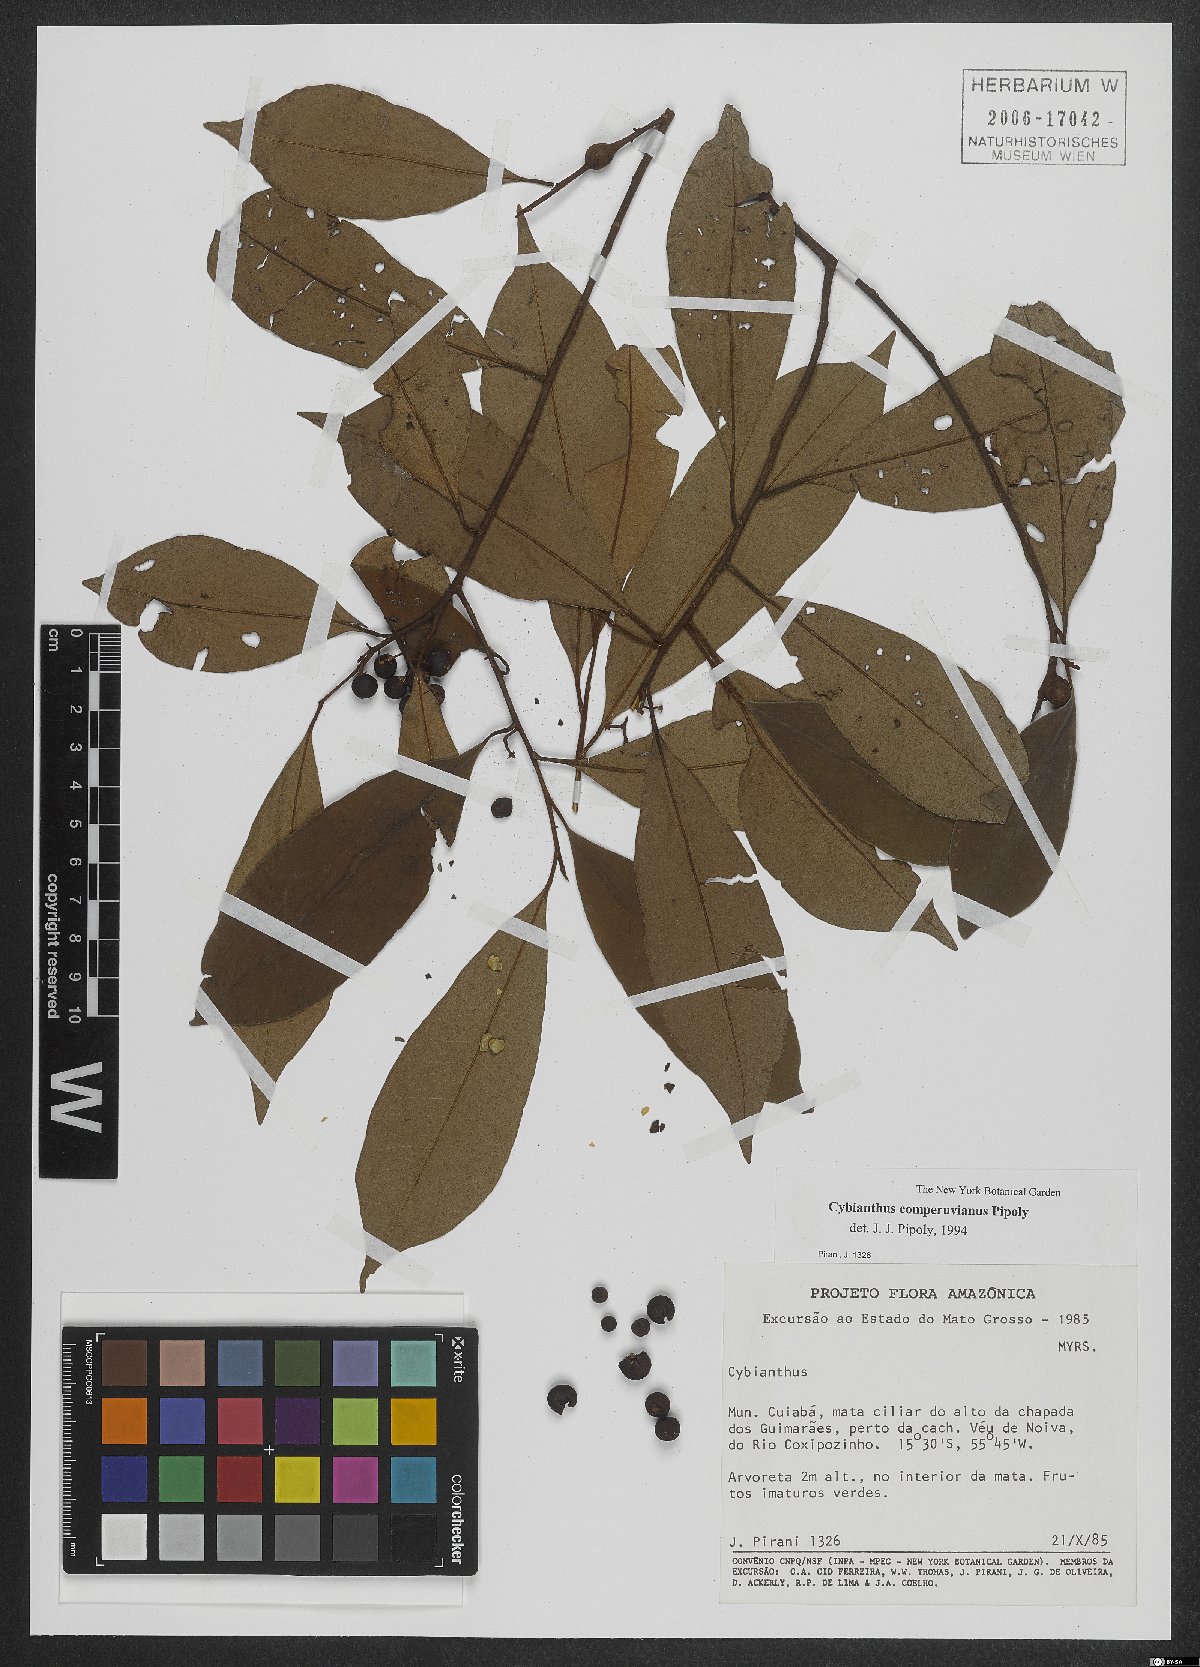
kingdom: Plantae
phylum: Tracheophyta
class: Magnoliopsida
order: Ericales
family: Primulaceae
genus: Cybianthus
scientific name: Cybianthus comperuvianus
